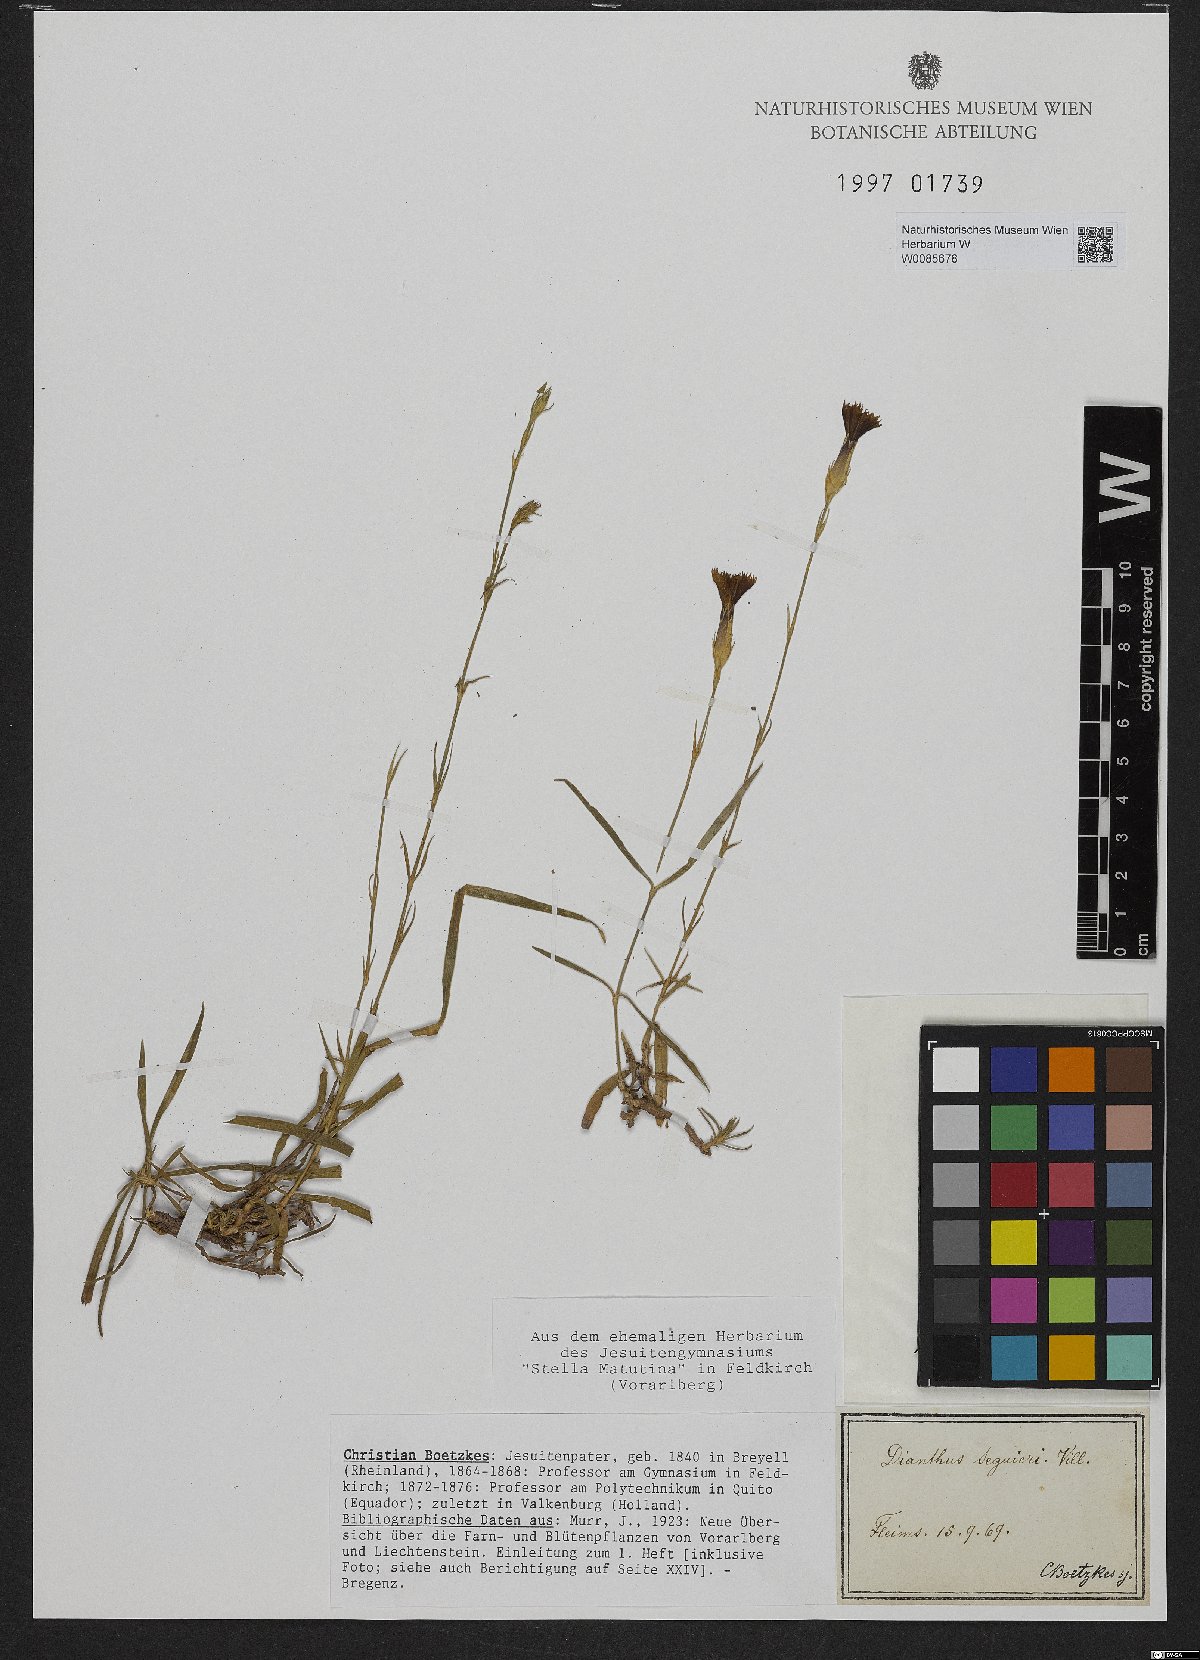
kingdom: Plantae
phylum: Tracheophyta
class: Magnoliopsida
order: Caryophyllales
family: Caryophyllaceae
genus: Dianthus
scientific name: Dianthus seguieri
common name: Ragged pink
